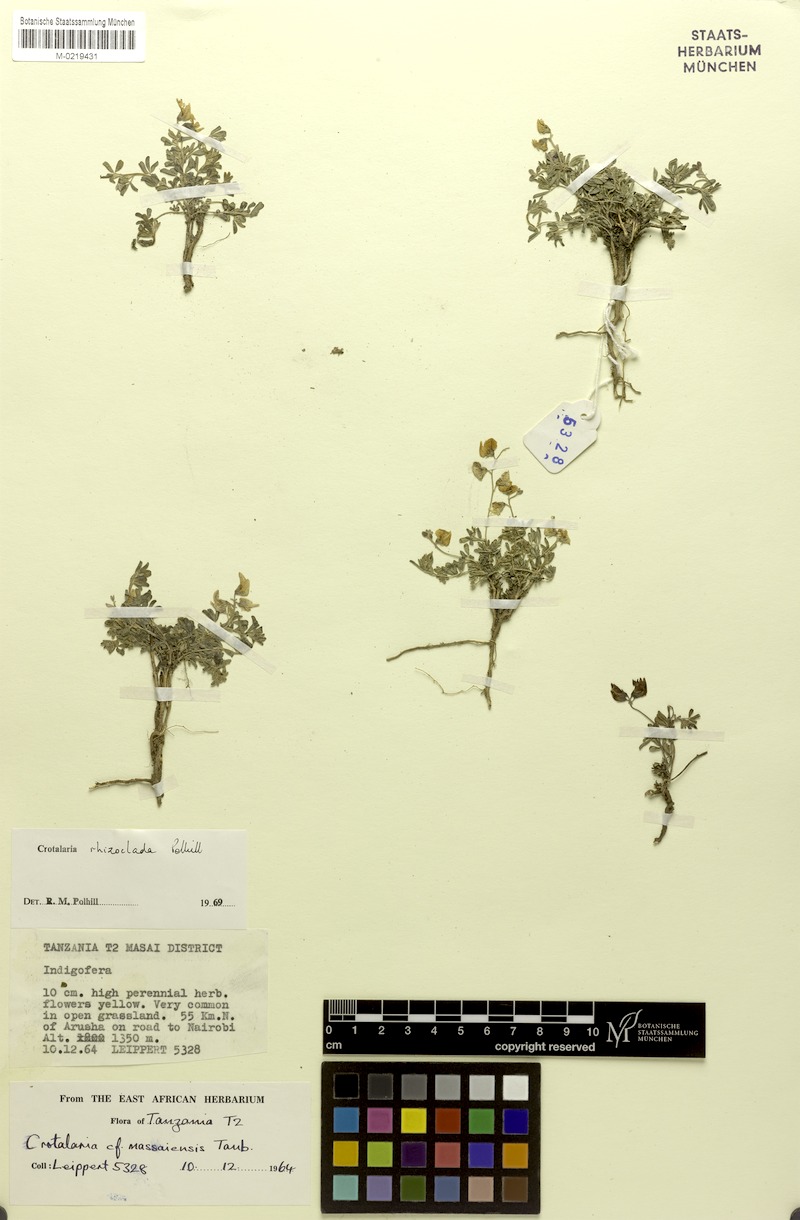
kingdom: Plantae
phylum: Tracheophyta
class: Magnoliopsida
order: Fabales
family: Fabaceae
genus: Crotalaria
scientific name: Crotalaria rhizoclada
